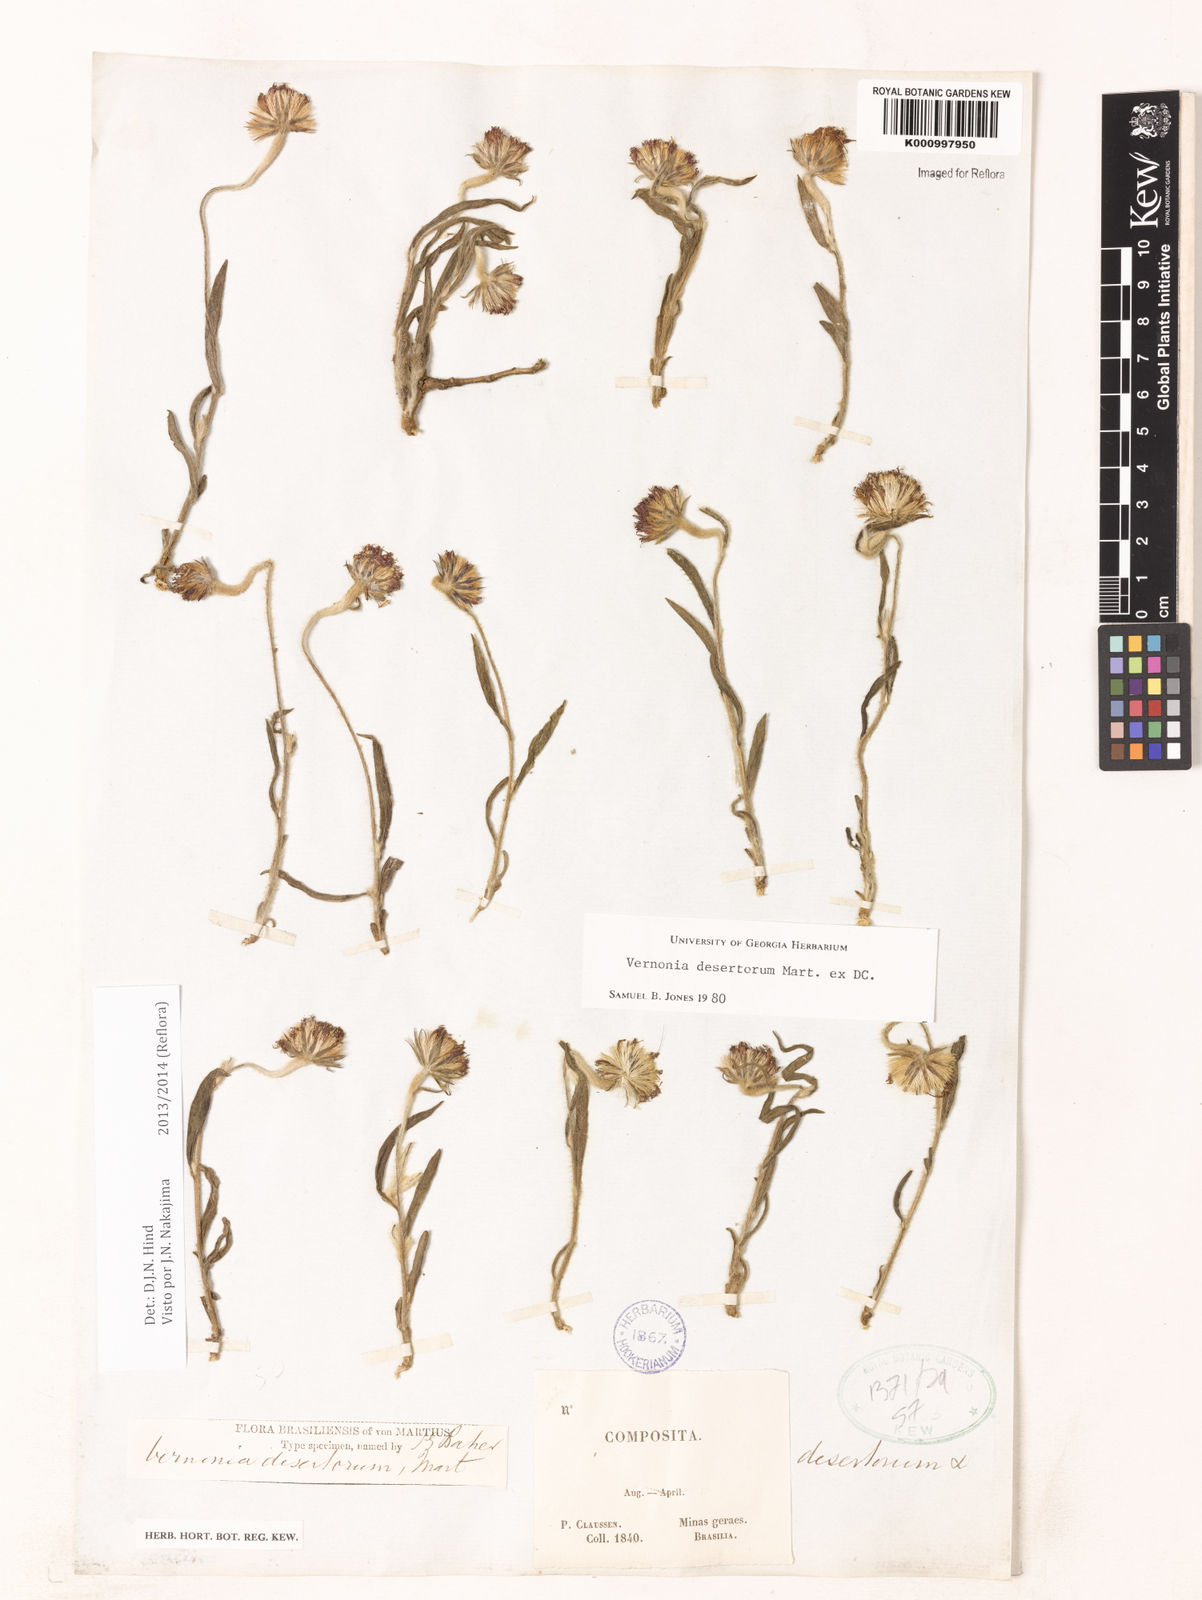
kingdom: Plantae
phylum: Tracheophyta
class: Magnoliopsida
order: Asterales
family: Asteraceae
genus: Chrysolaena
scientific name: Chrysolaena desertorum
